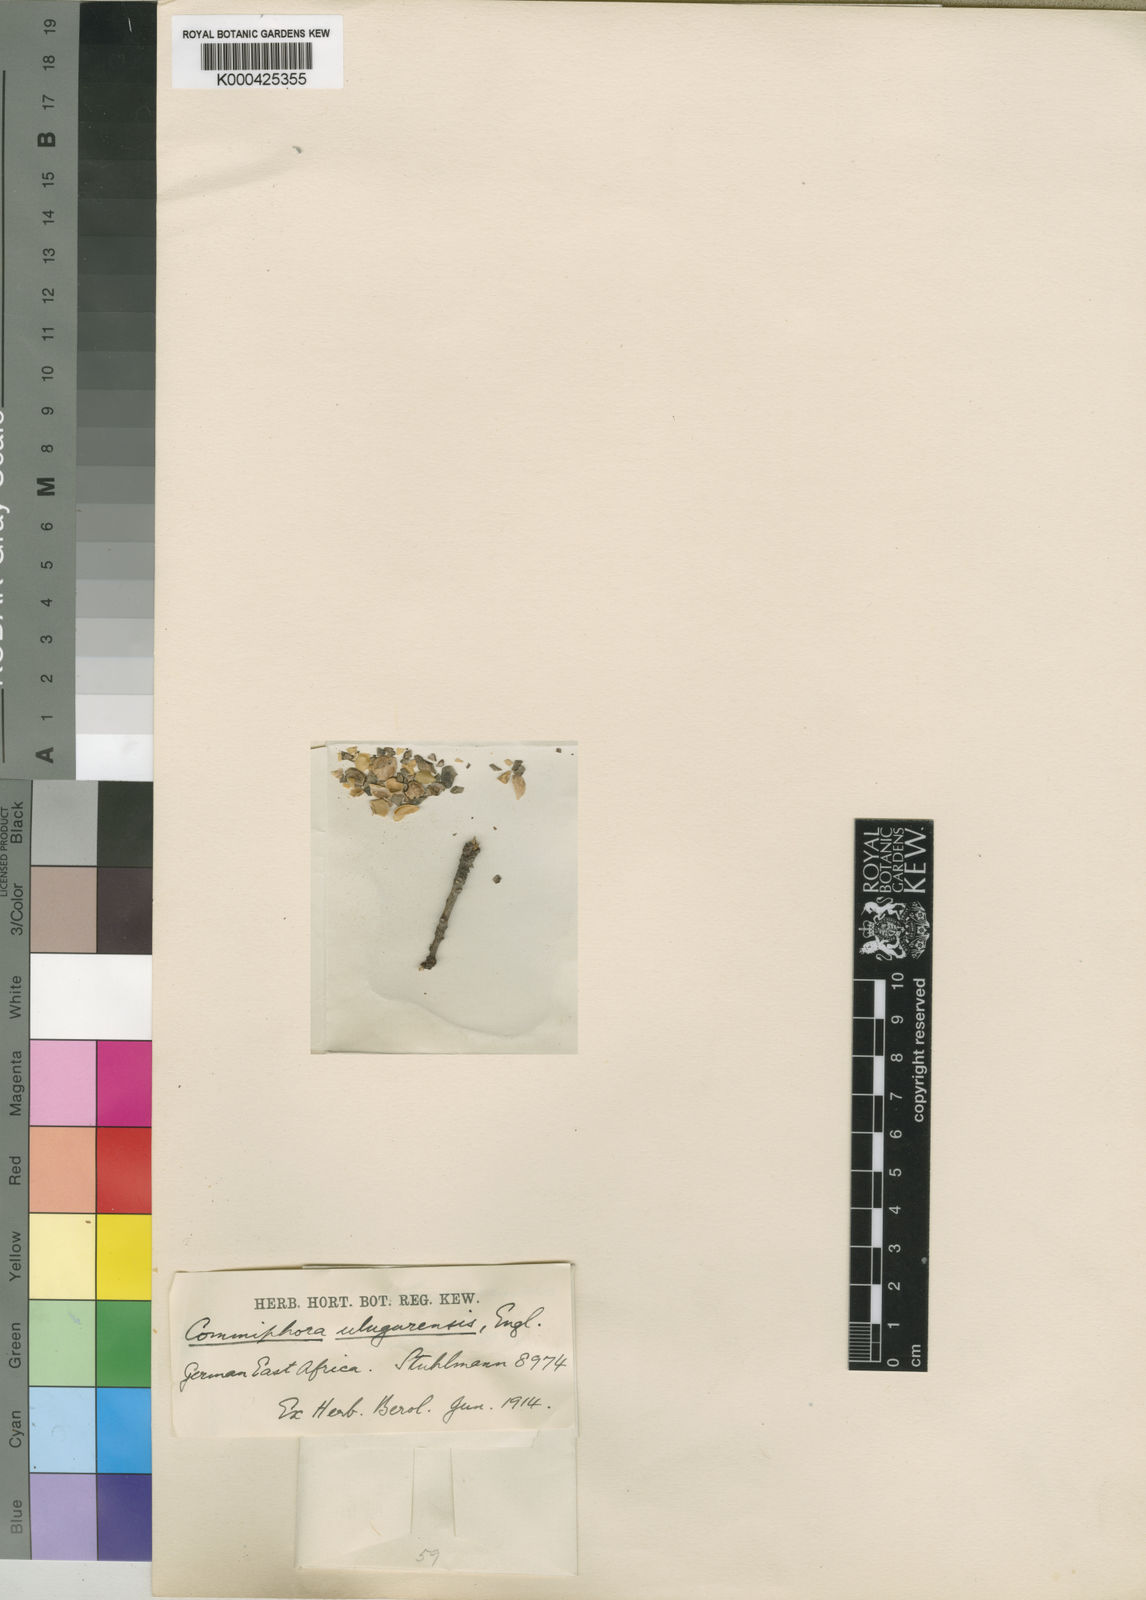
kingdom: Plantae
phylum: Tracheophyta
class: Magnoliopsida
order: Sapindales
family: Burseraceae
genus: Commiphora
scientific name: Commiphora ulugurensis
